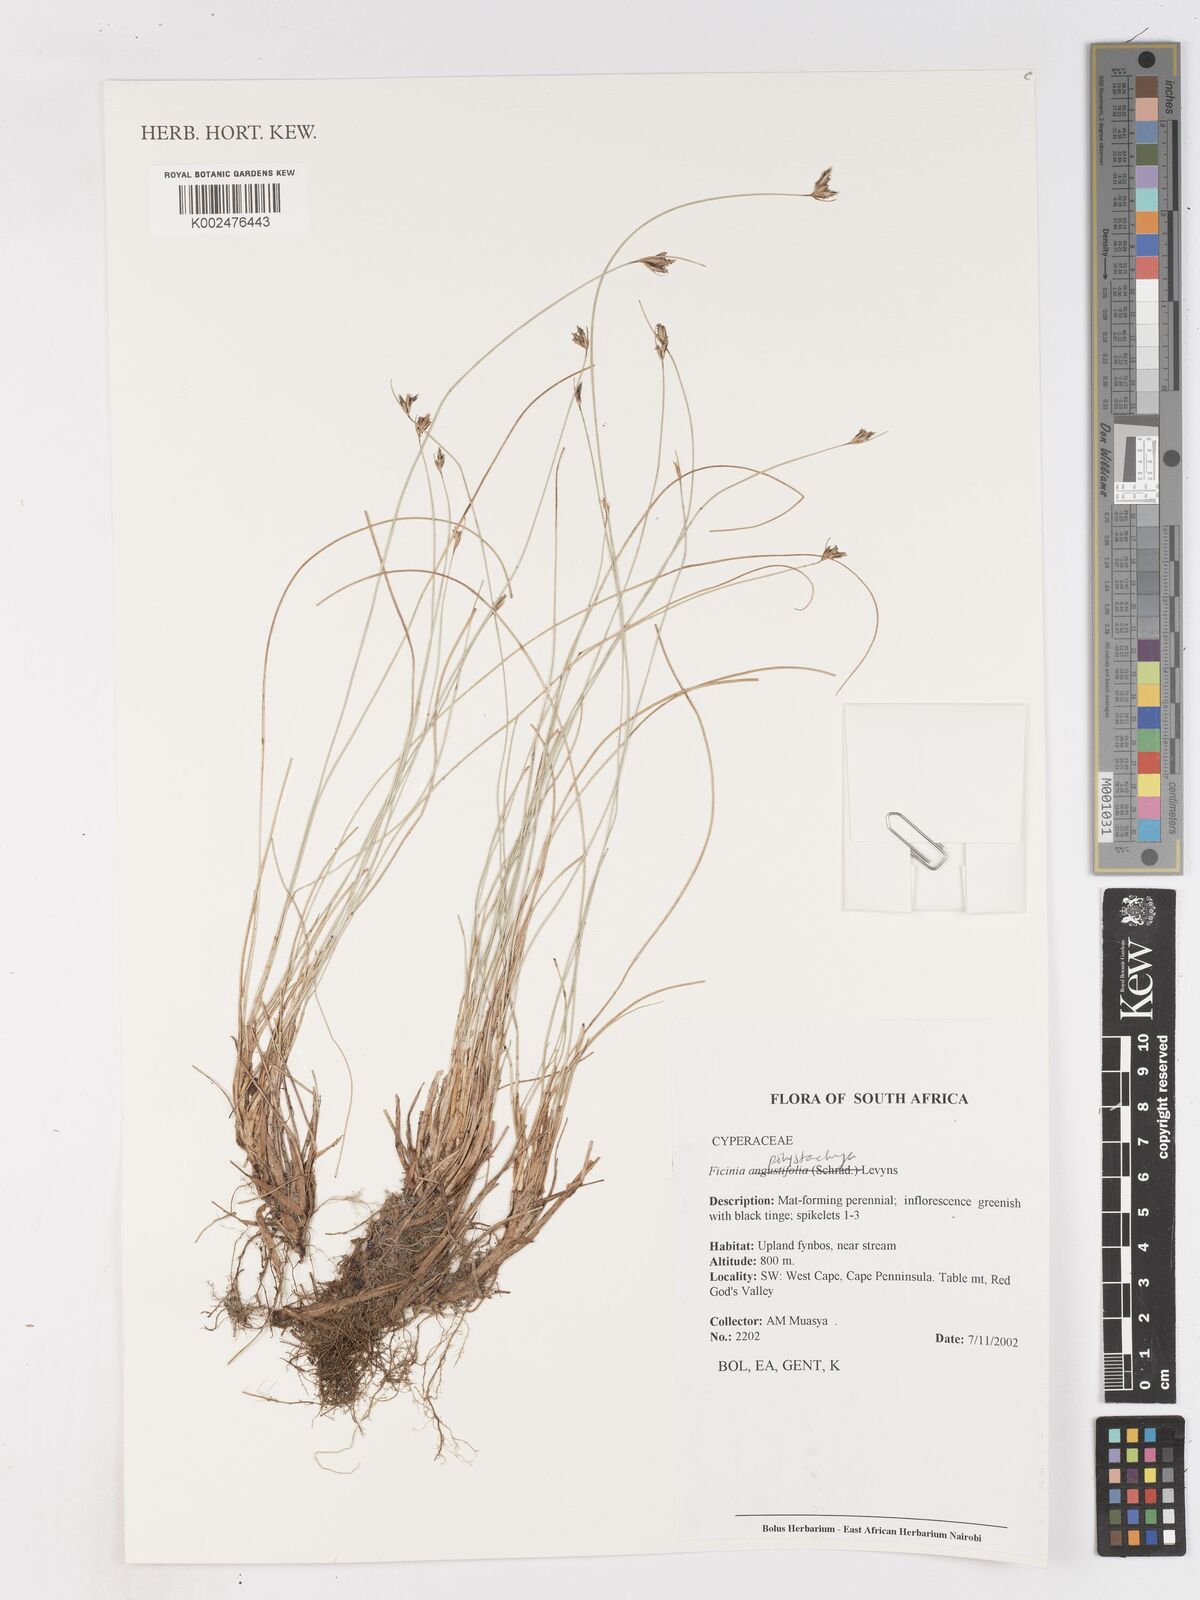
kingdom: Plantae
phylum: Tracheophyta
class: Liliopsida
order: Poales
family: Cyperaceae
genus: Ficinia
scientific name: Ficinia polystachya
